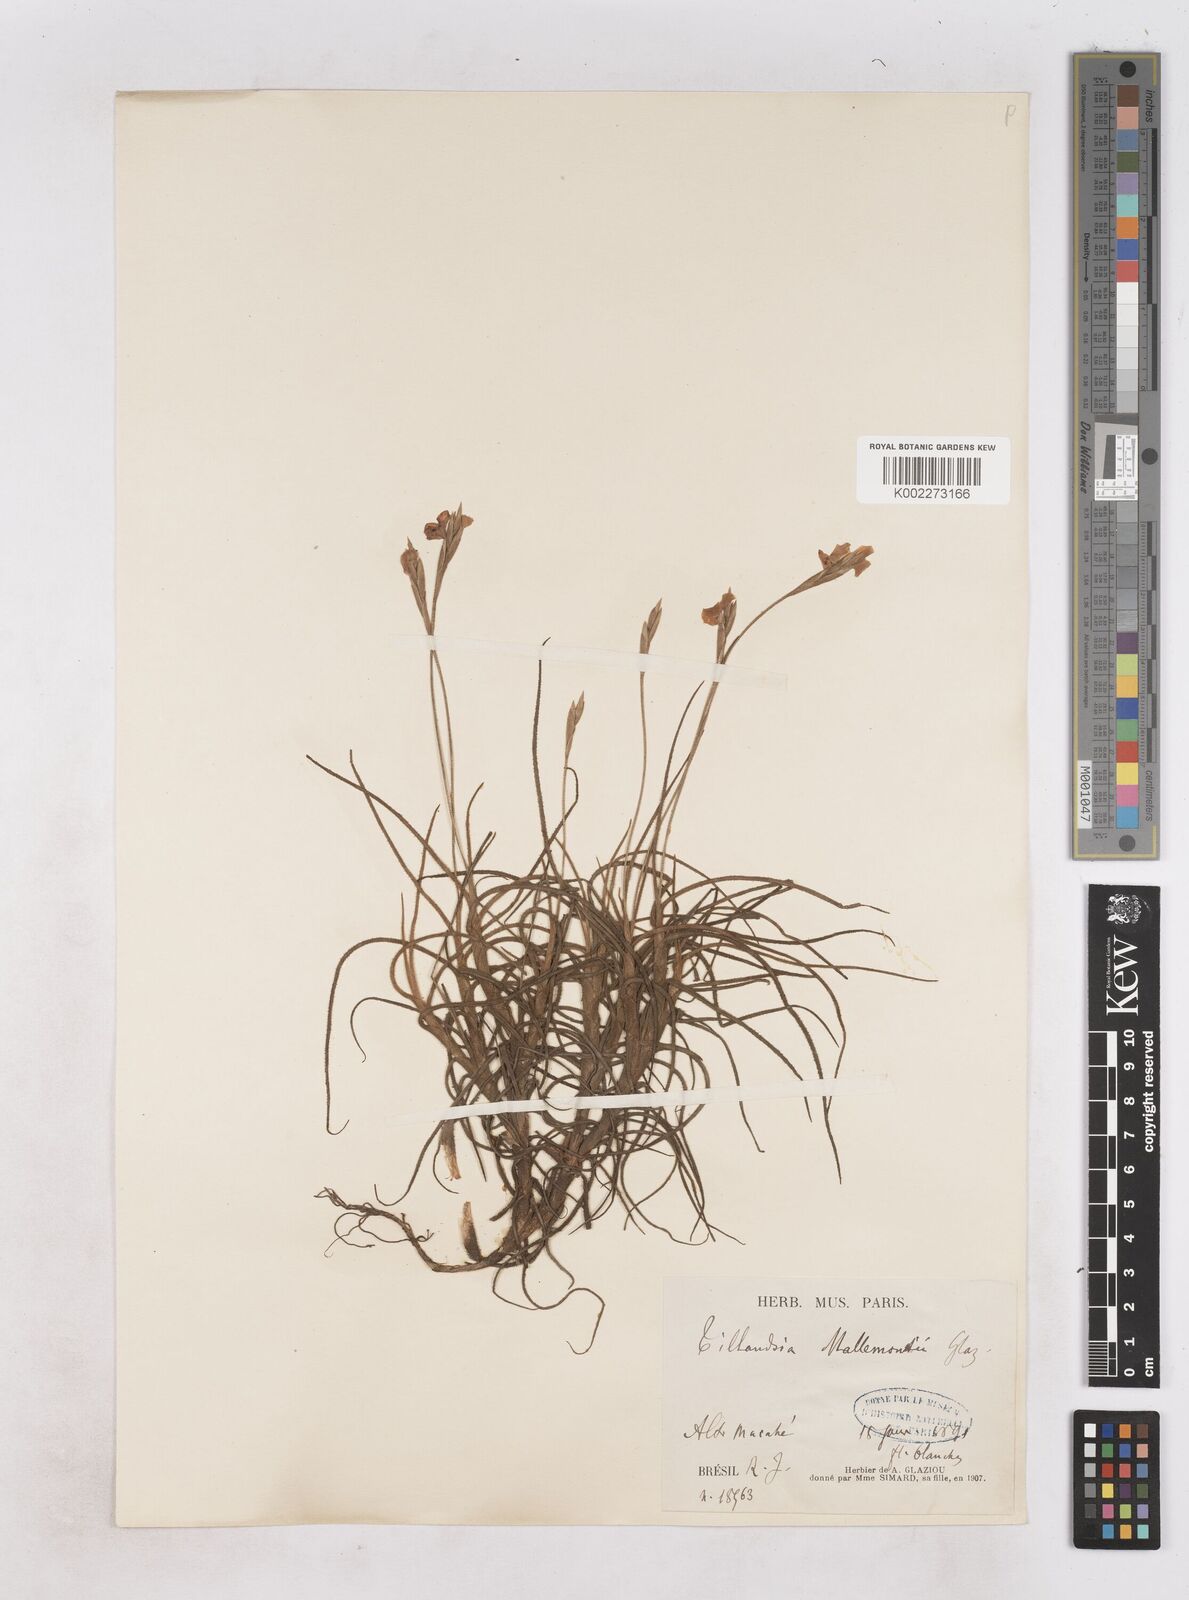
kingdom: Plantae
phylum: Tracheophyta
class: Liliopsida
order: Poales
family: Bromeliaceae
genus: Tillandsia
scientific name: Tillandsia mallemontii
